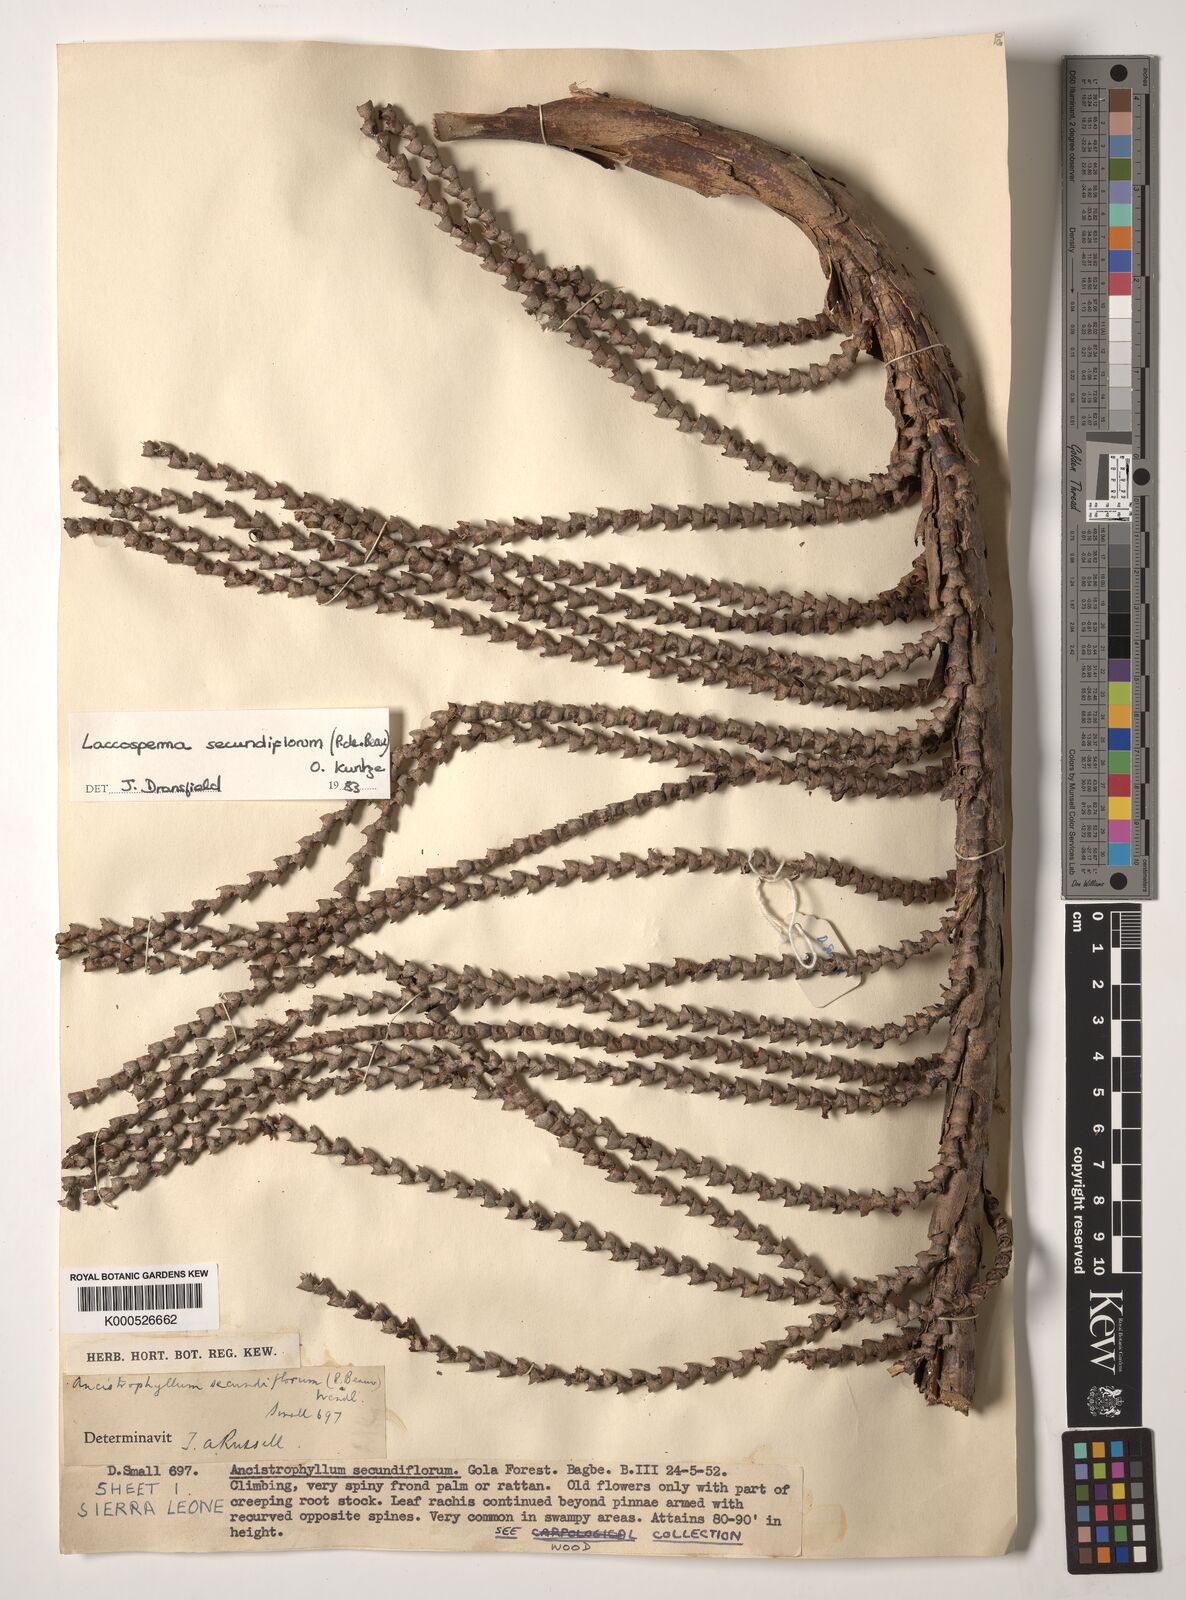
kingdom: Plantae
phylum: Tracheophyta
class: Liliopsida
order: Arecales
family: Arecaceae
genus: Laccosperma
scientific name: Laccosperma secundiflorum
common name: Rattan
